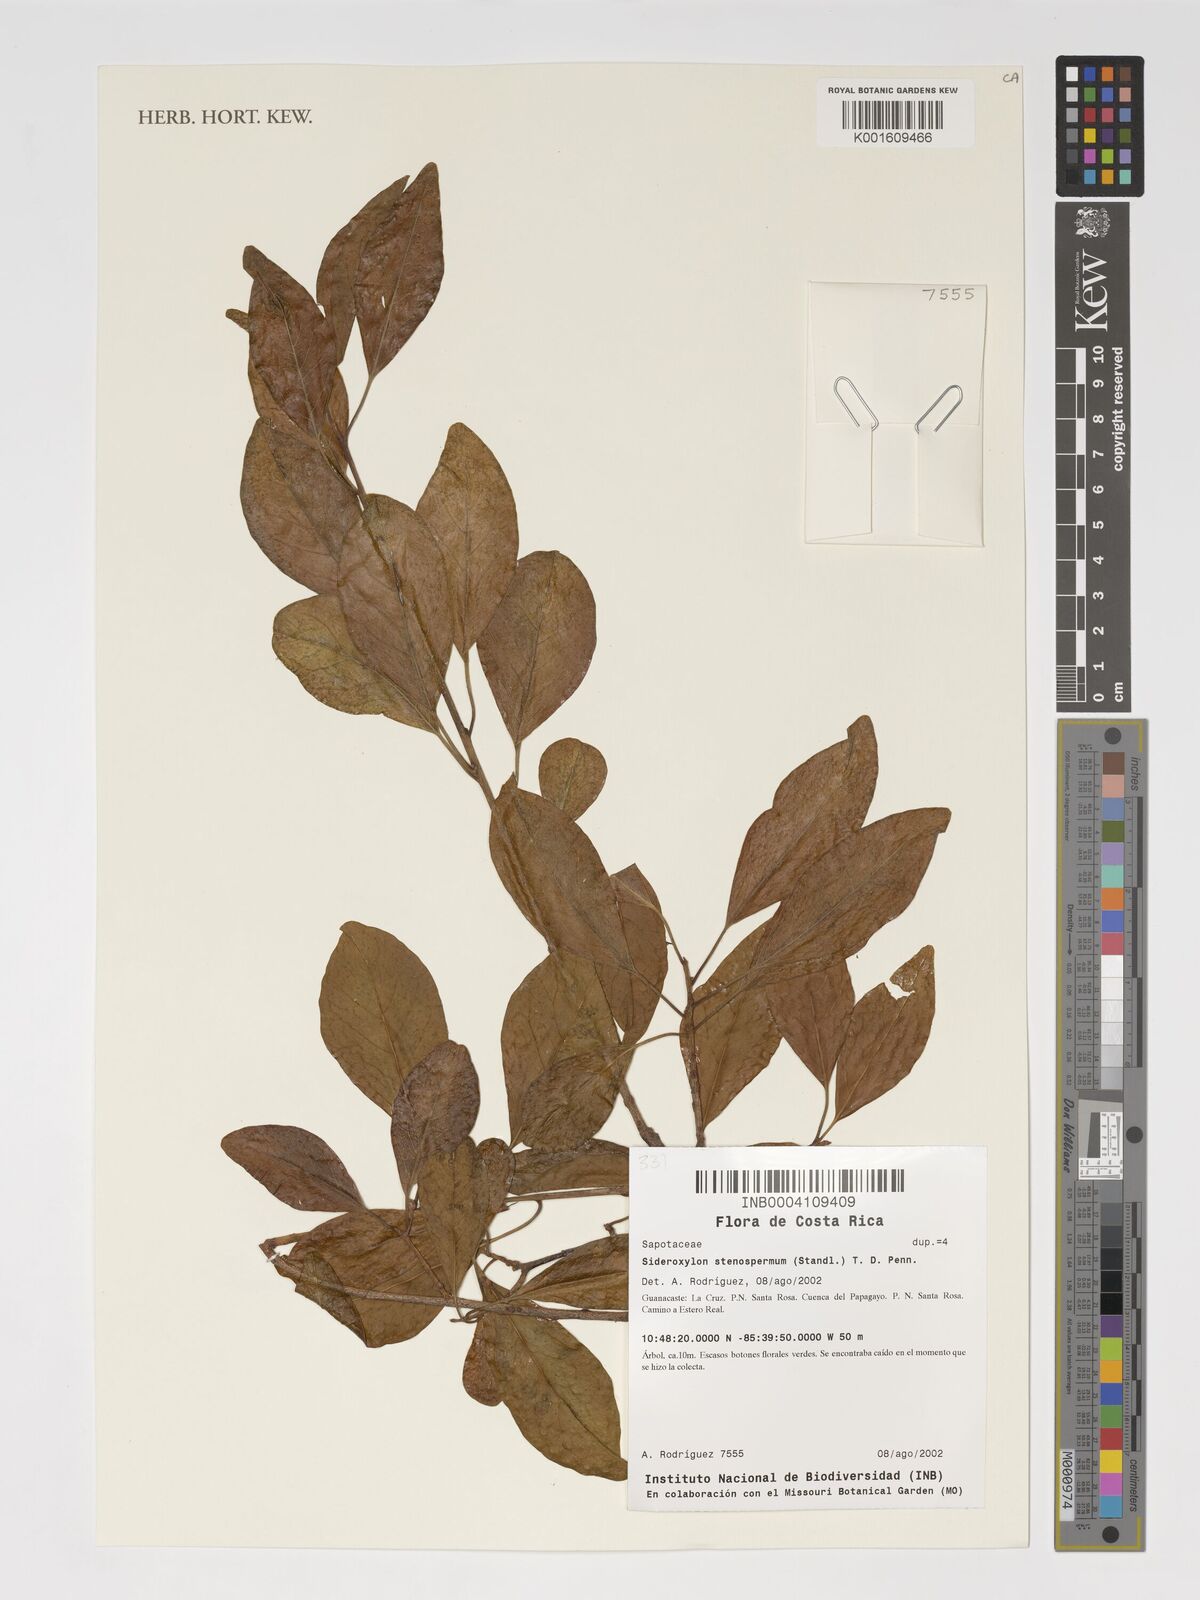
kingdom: Plantae
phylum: Tracheophyta
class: Magnoliopsida
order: Ericales
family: Sapotaceae
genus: Sideroxylon
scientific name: Sideroxylon stenospermum
